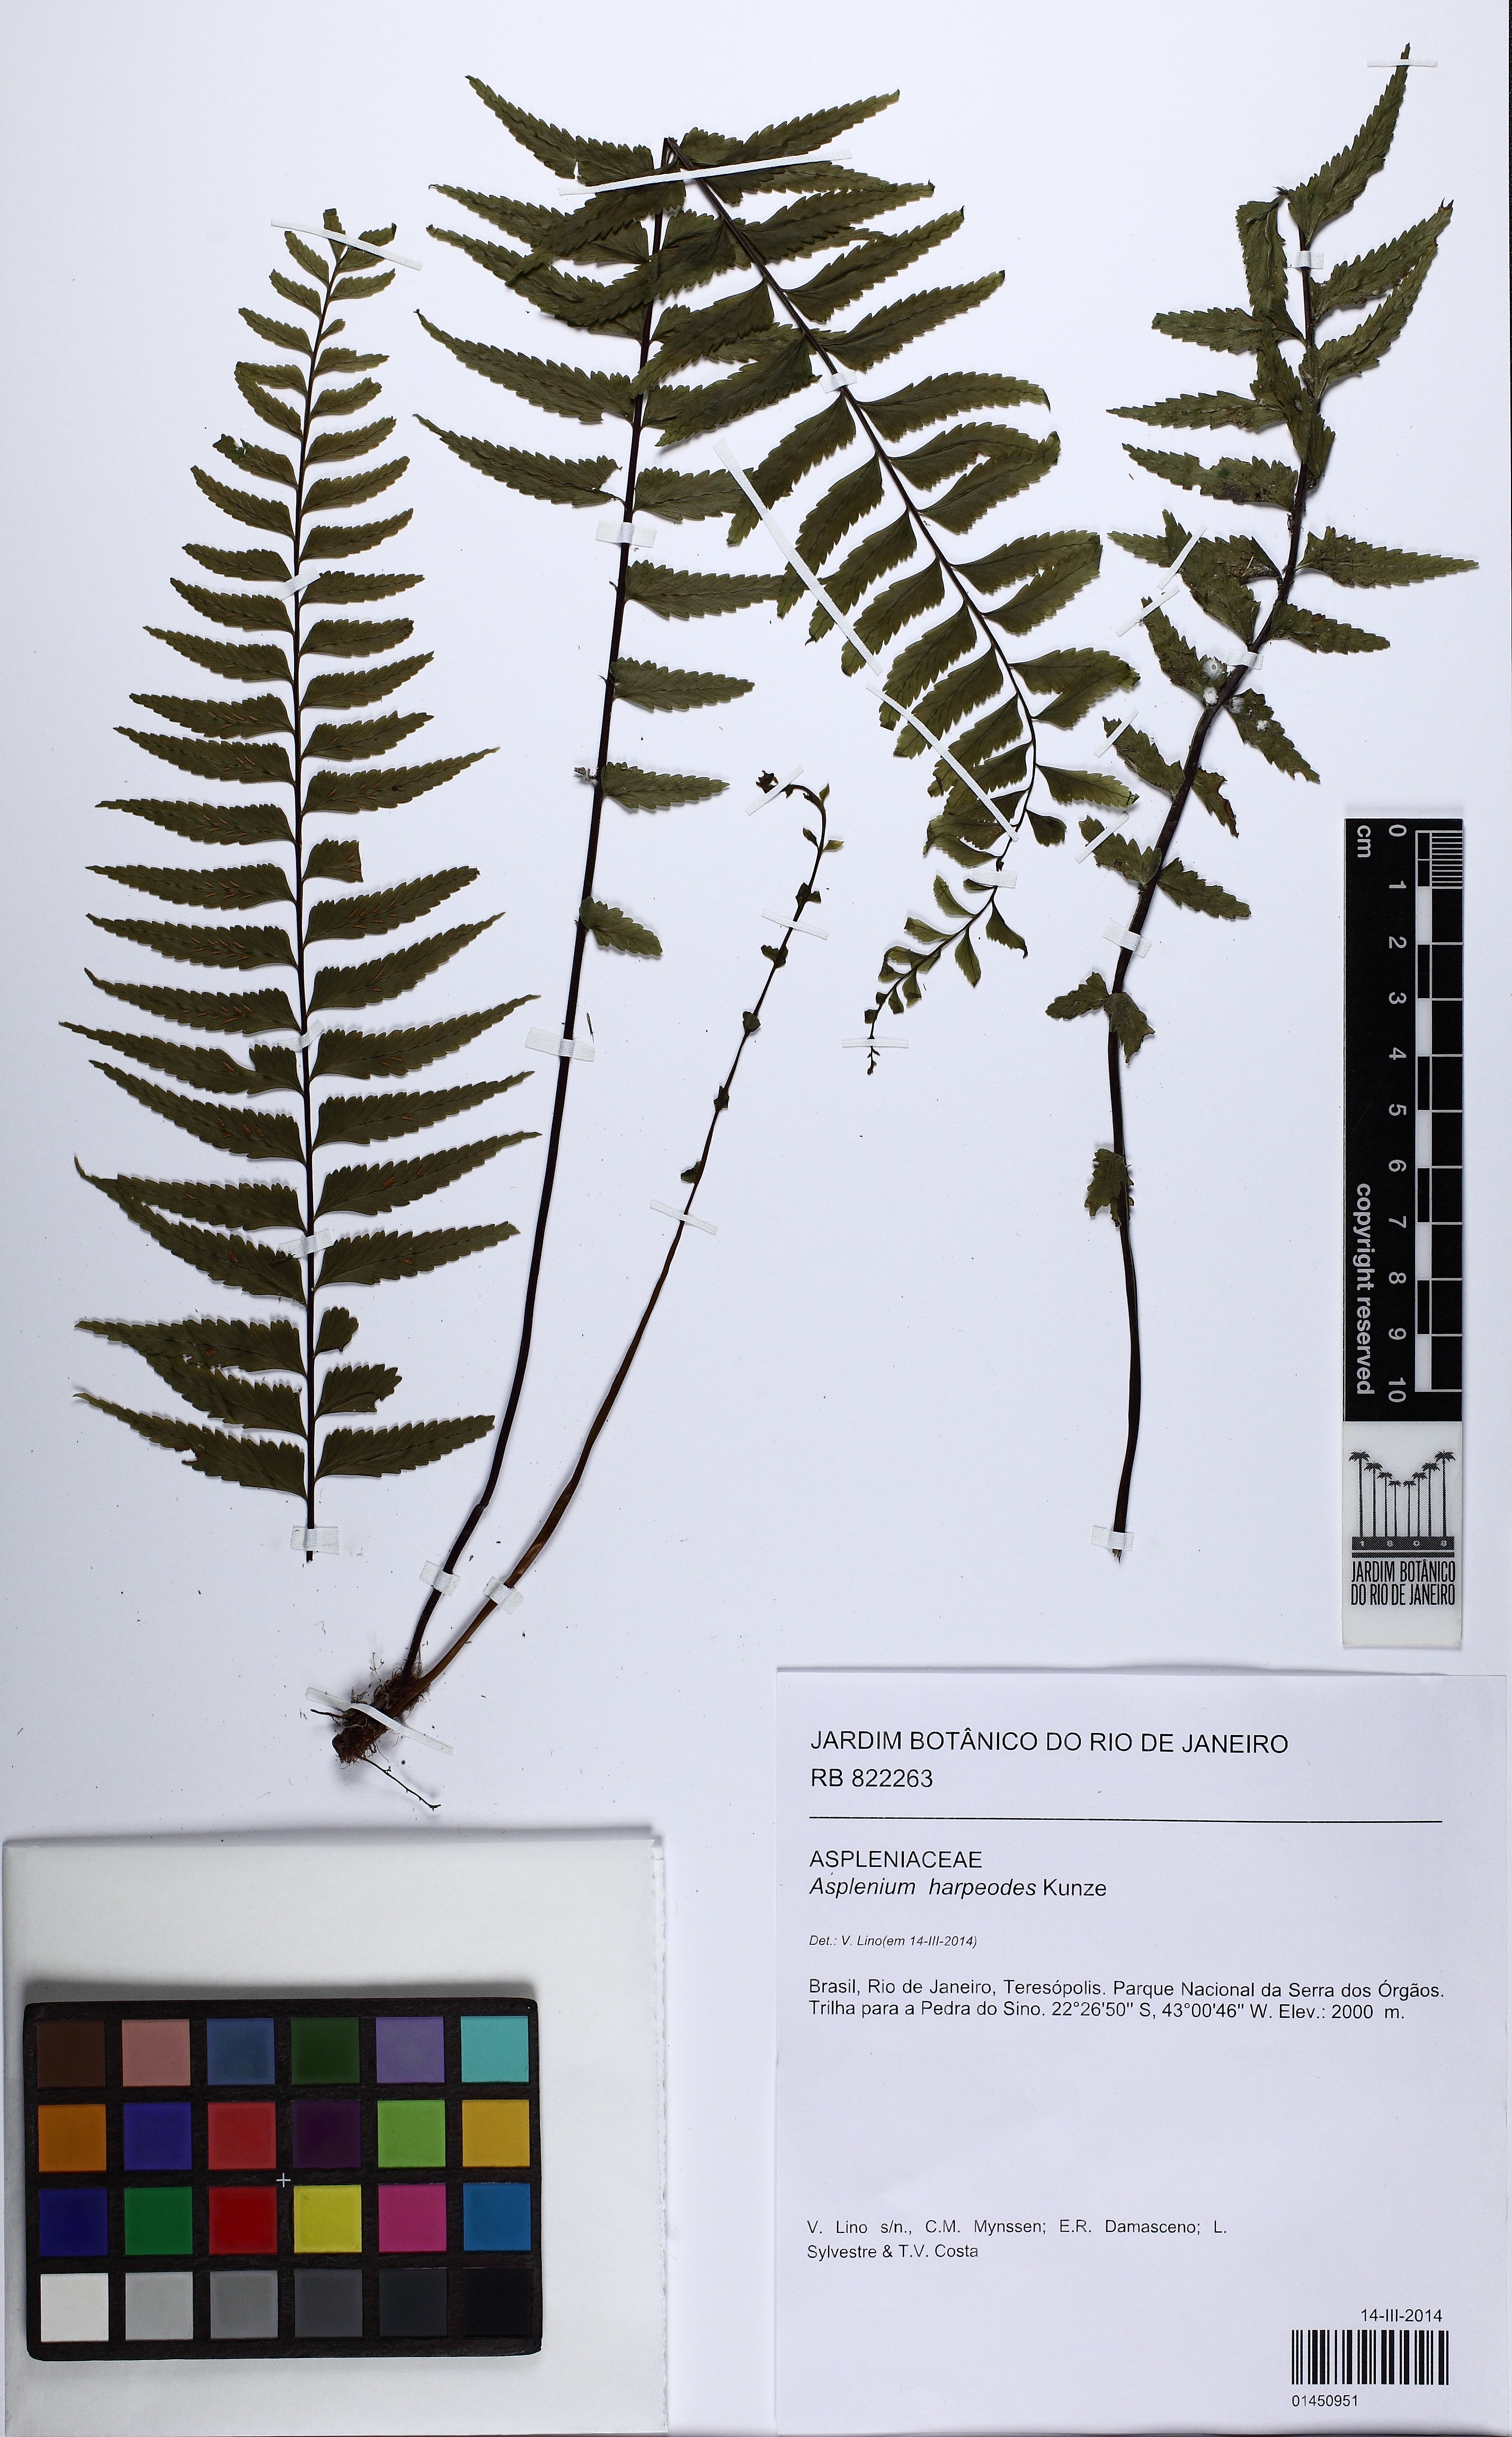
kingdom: Plantae
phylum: Tracheophyta
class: Polypodiopsida
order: Polypodiales
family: Aspleniaceae
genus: Asplenium
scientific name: Asplenium harpeodes
